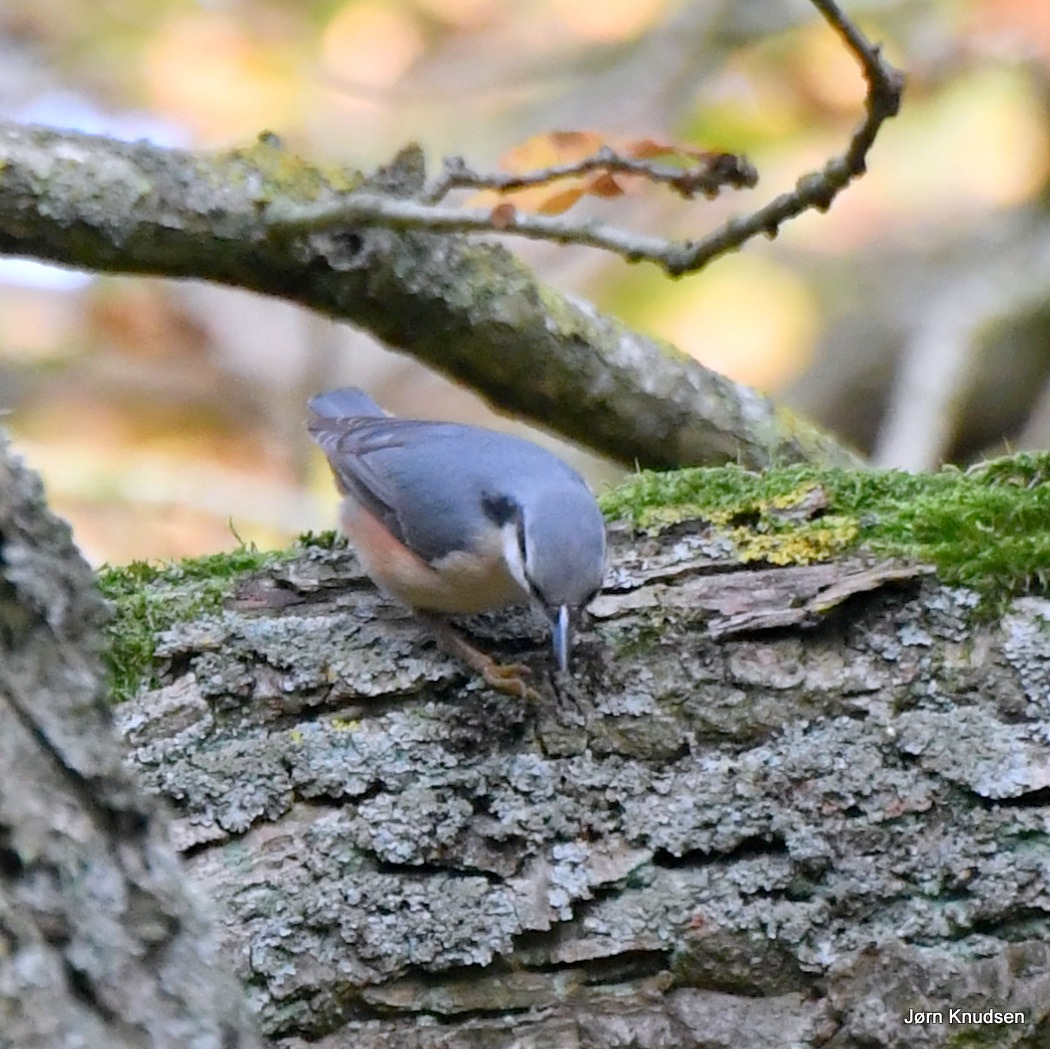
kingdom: Animalia
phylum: Chordata
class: Aves
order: Passeriformes
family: Sittidae
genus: Sitta
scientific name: Sitta europaea
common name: Spætmejse
